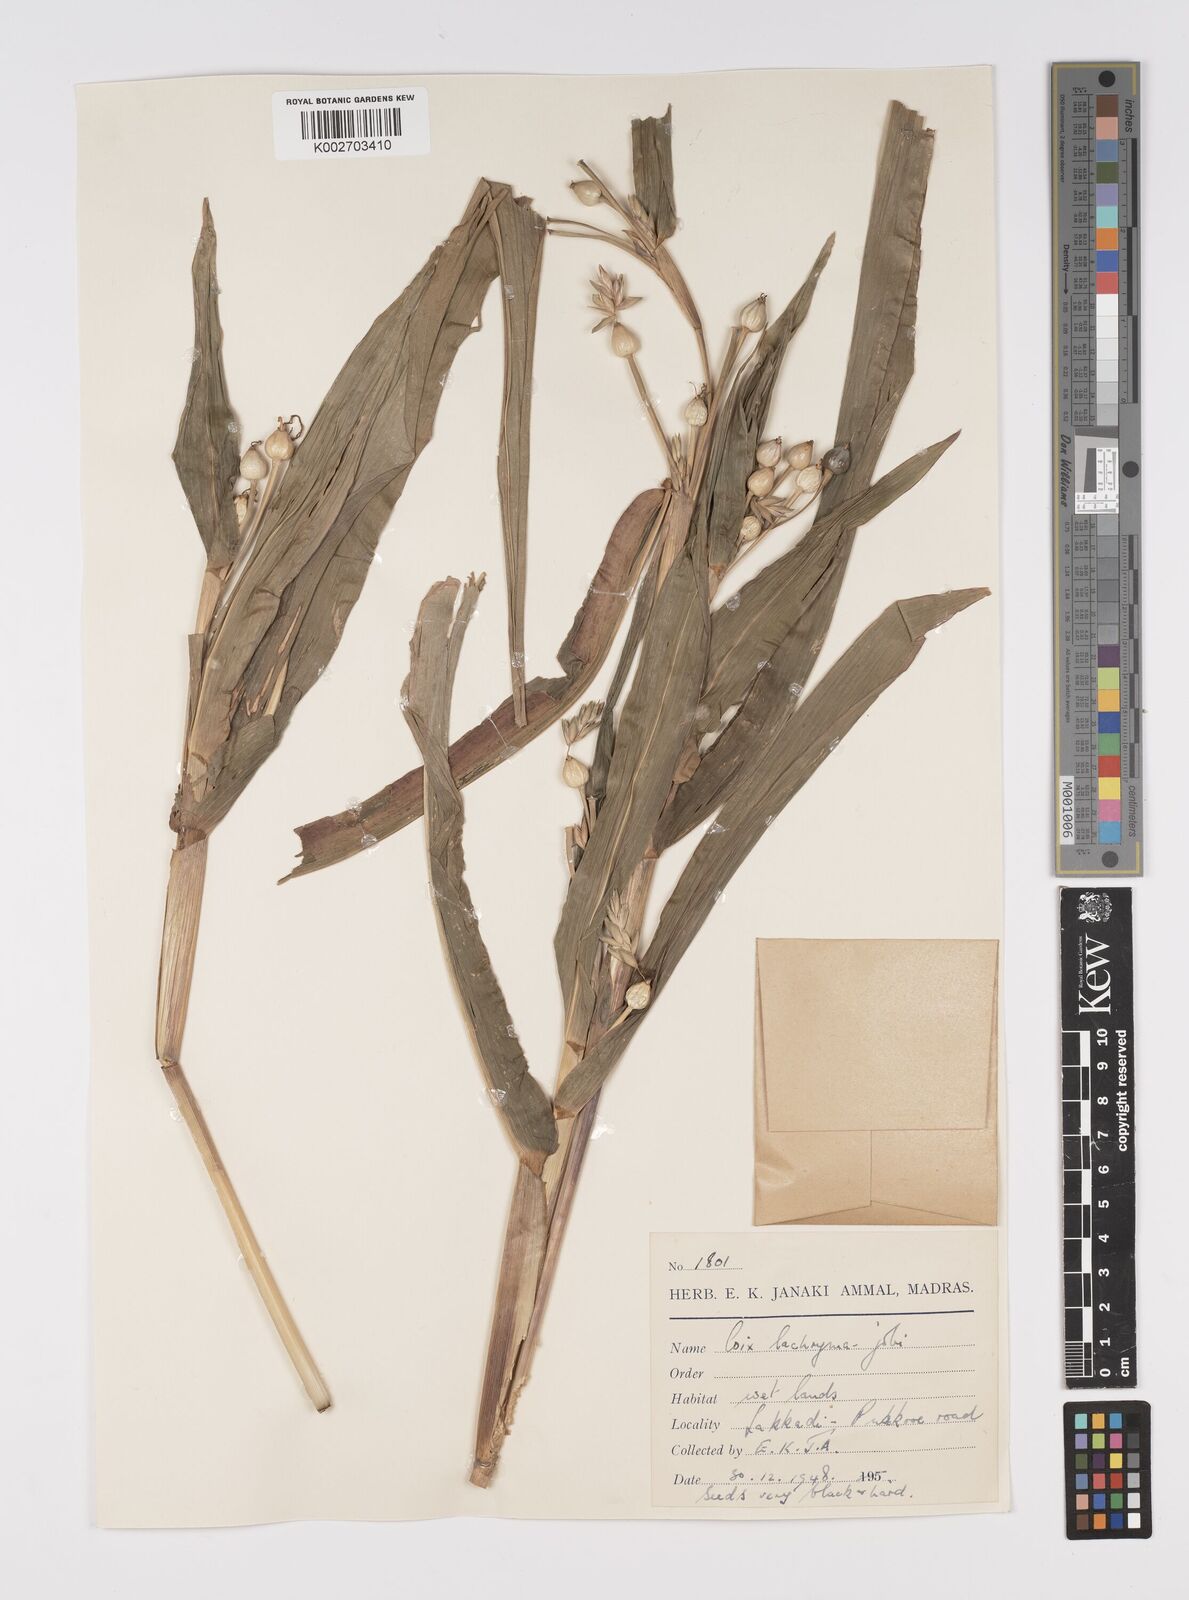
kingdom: Plantae
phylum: Tracheophyta
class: Liliopsida
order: Poales
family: Poaceae
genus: Coix
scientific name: Coix lacryma-jobi
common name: Job's tears
